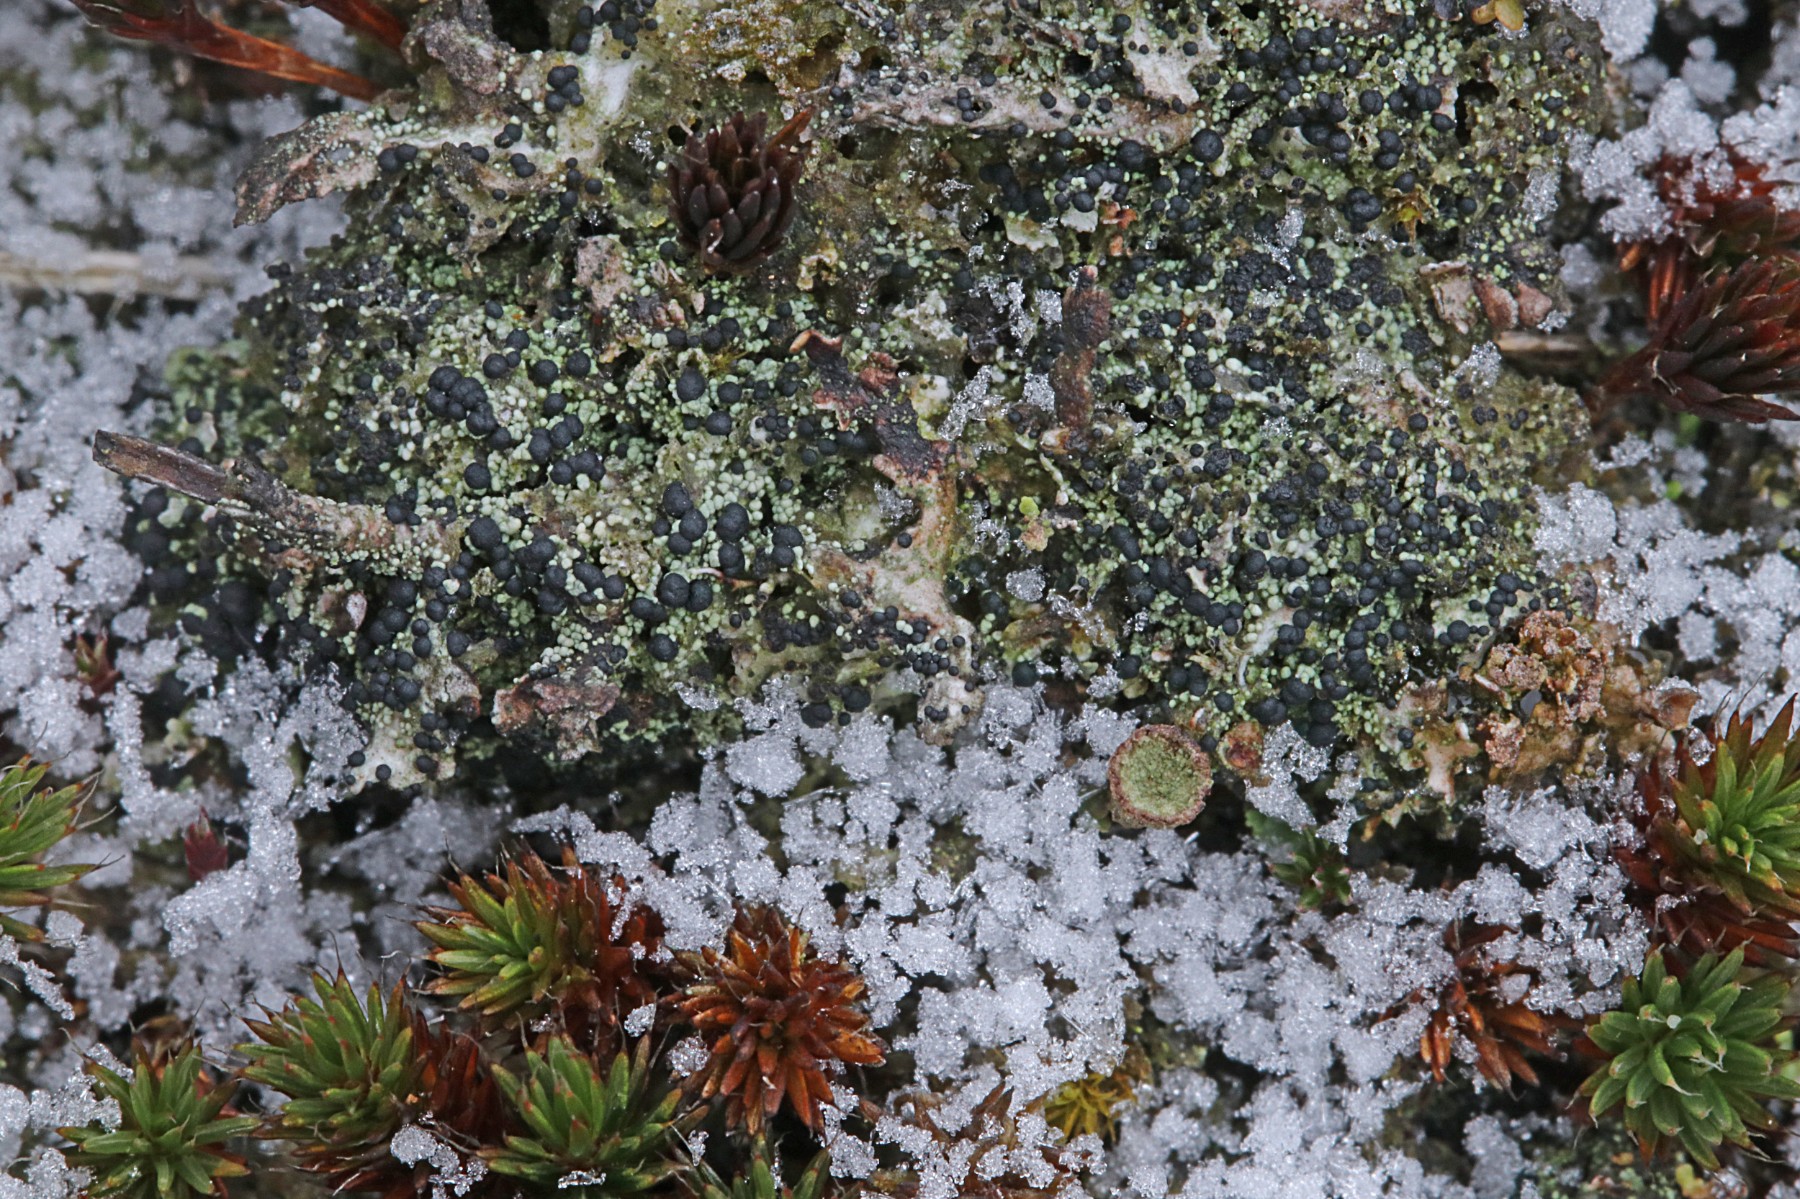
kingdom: Fungi
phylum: Ascomycota
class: Lecanoromycetes
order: Lecanorales
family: Byssolomataceae
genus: Micarea
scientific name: Micarea lignaria
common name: tørve-knaplav
